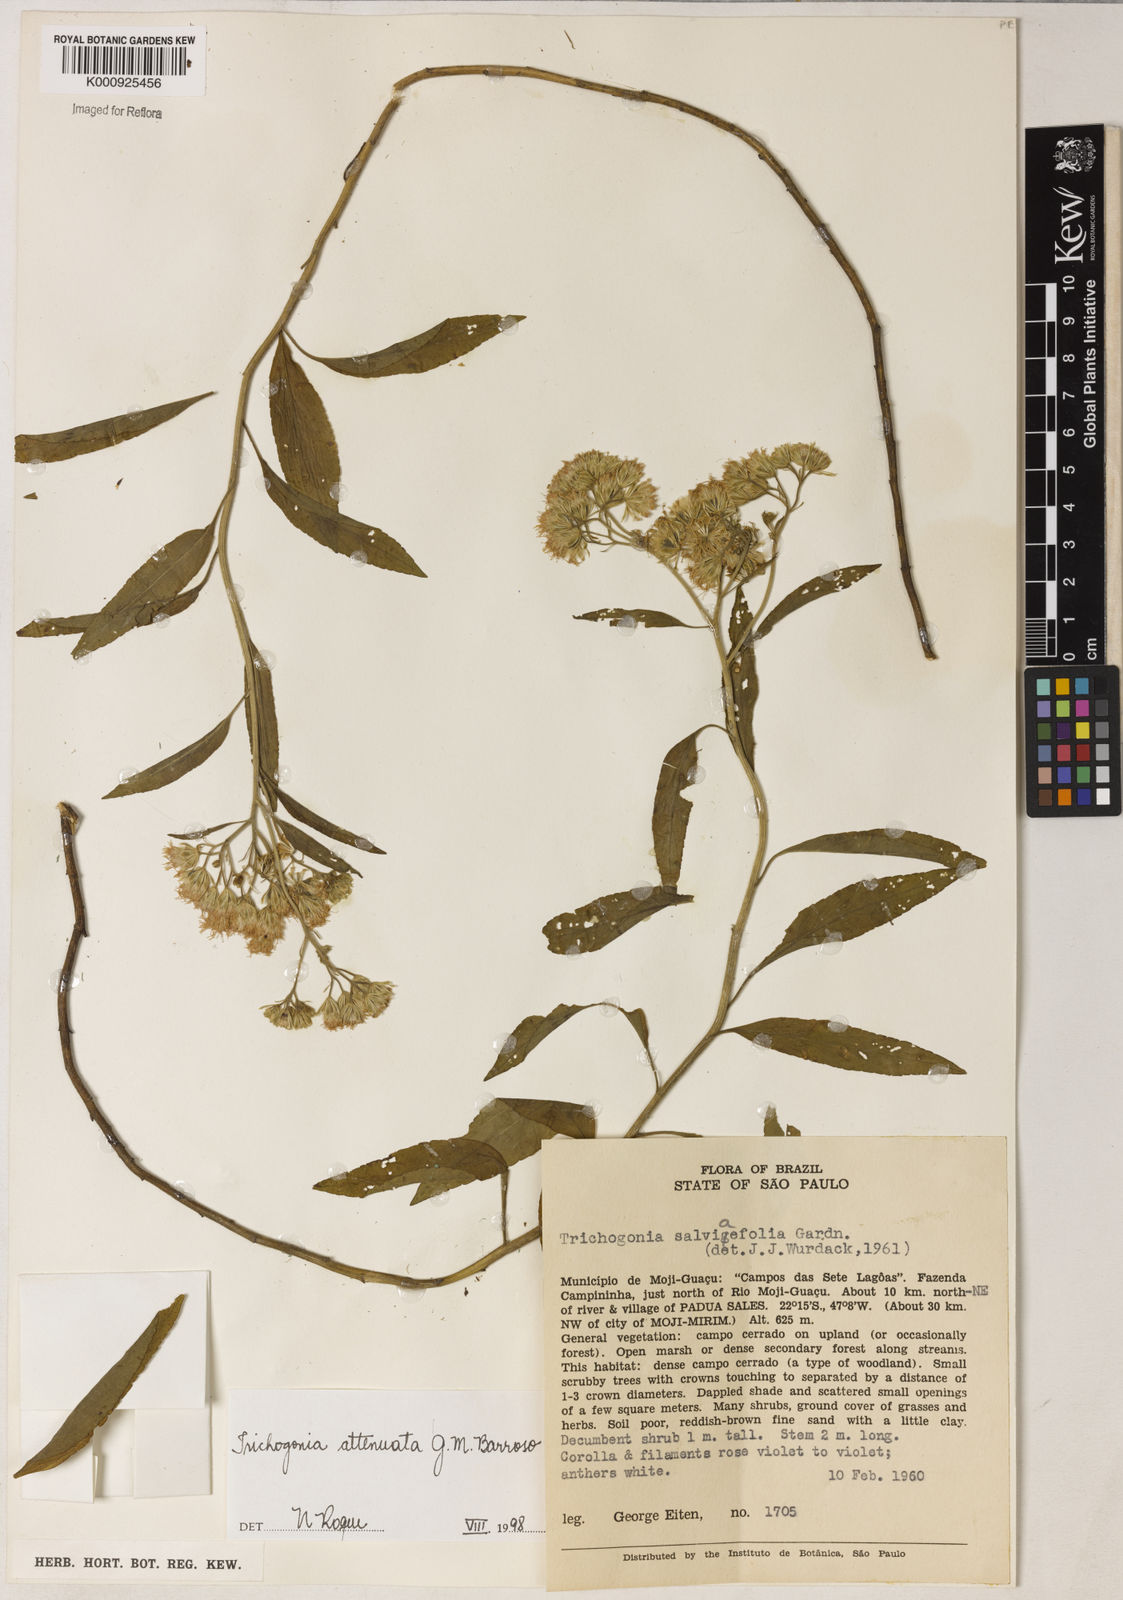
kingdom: Plantae
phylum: Tracheophyta
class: Magnoliopsida
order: Asterales
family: Asteraceae
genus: Trichogonia
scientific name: Trichogonia attenuata
